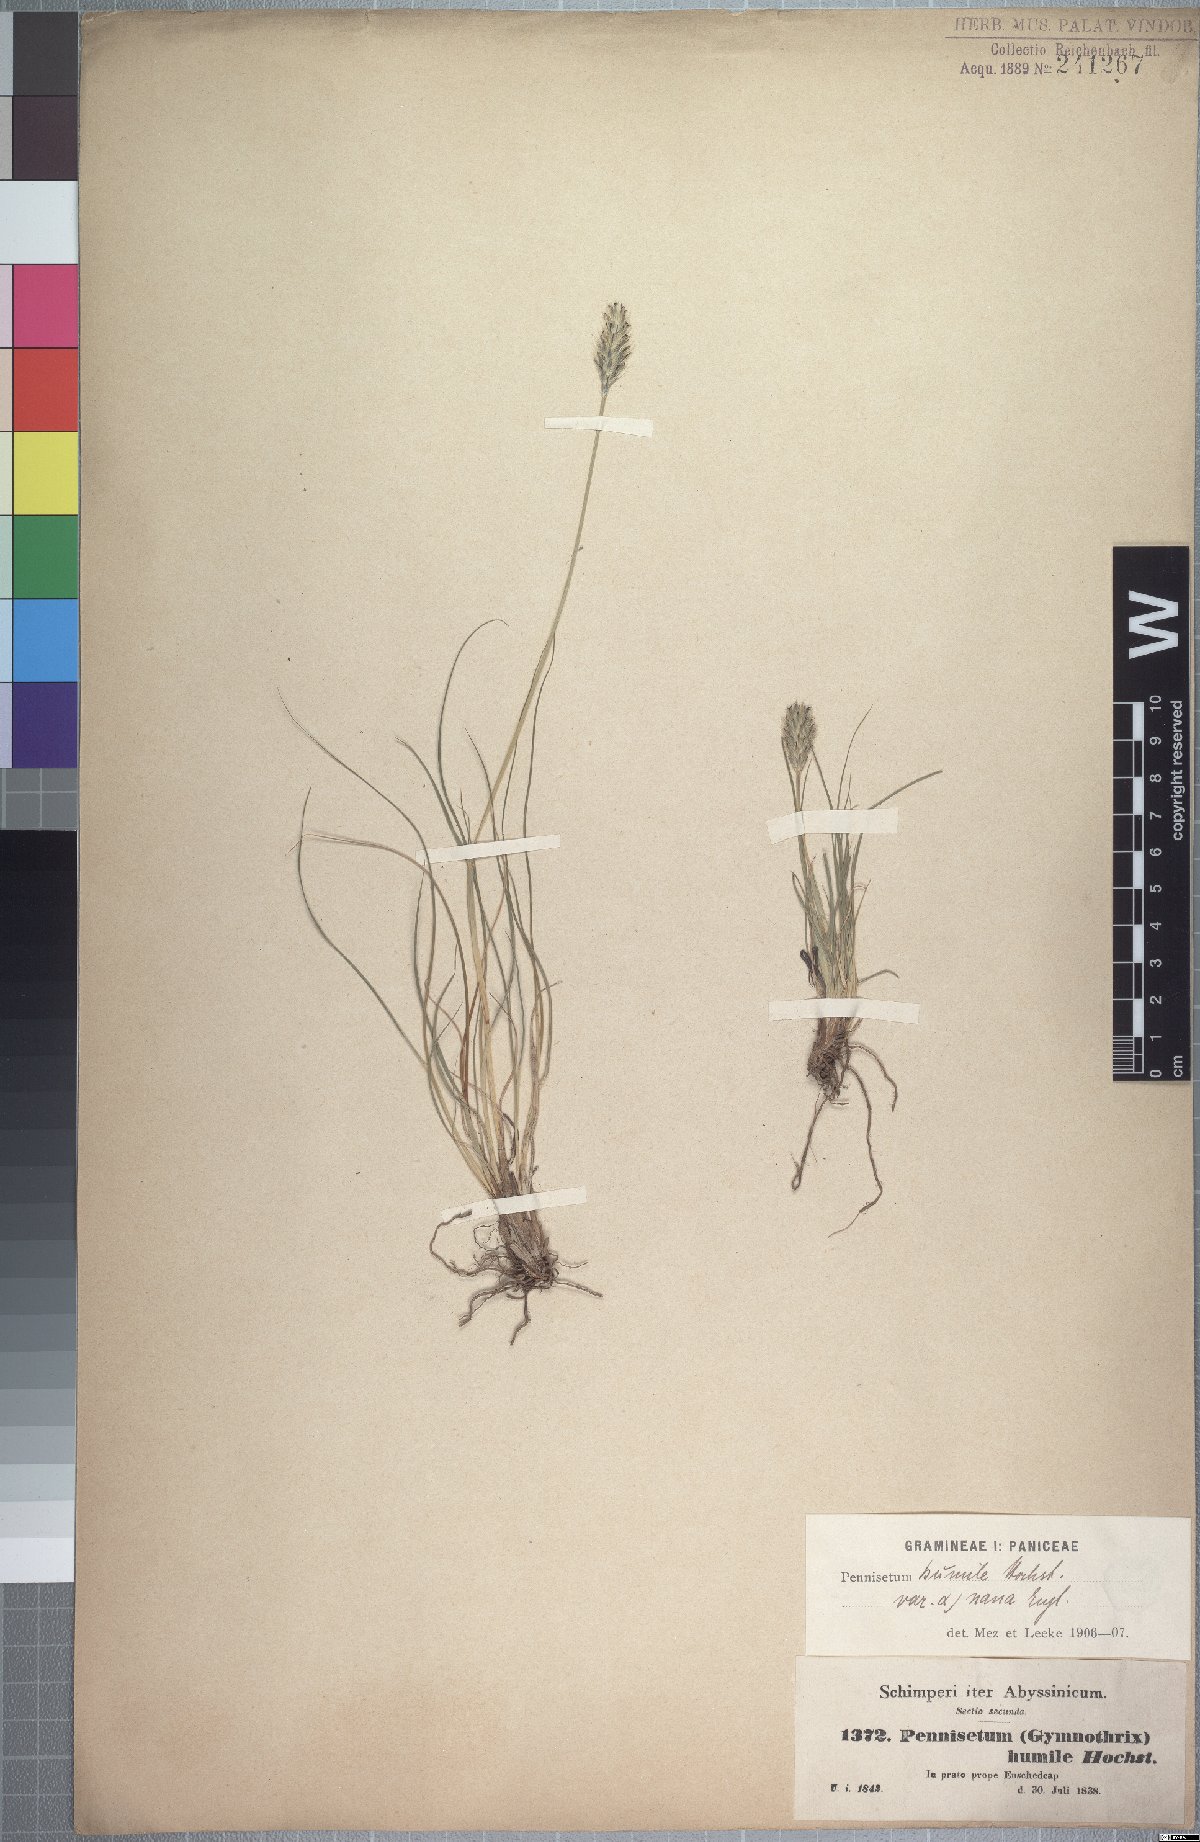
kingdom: Plantae
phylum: Tracheophyta
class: Liliopsida
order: Poales
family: Poaceae
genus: Cenchrus
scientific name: Cenchrus nanus
